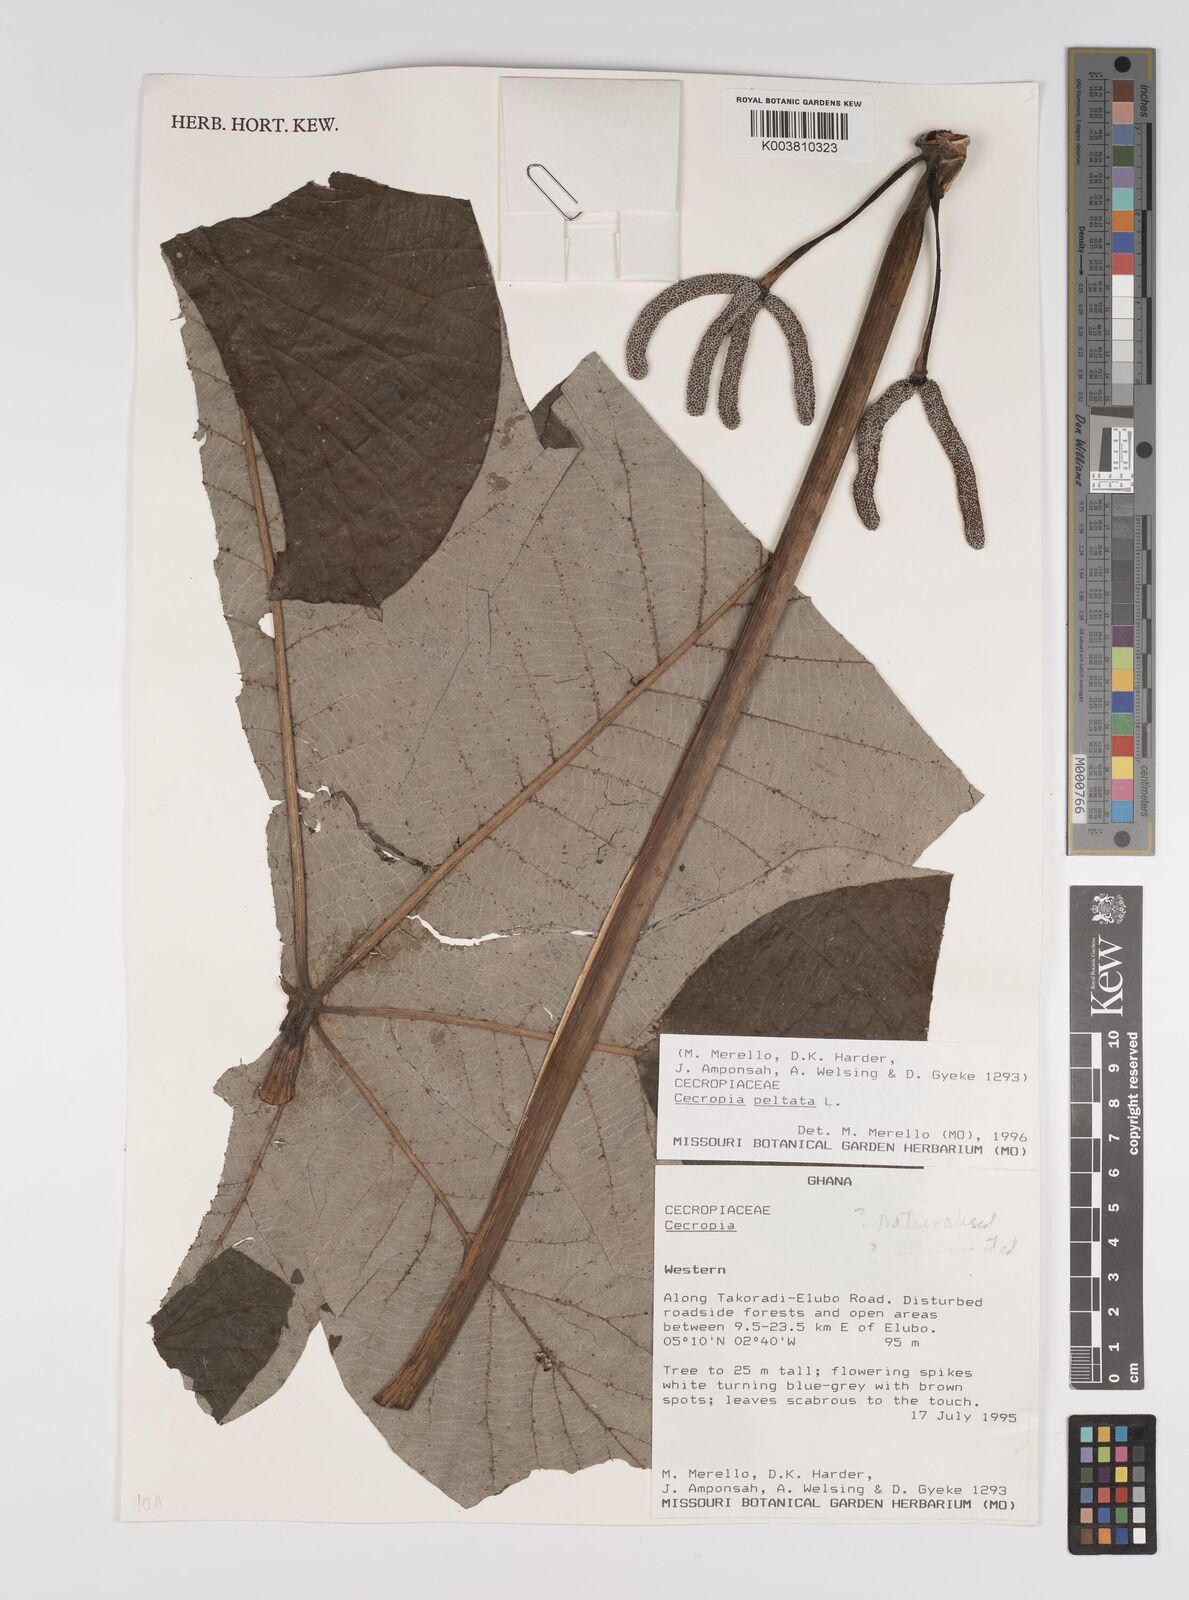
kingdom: Plantae
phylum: Tracheophyta
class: Magnoliopsida
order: Rosales
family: Urticaceae
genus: Cecropia
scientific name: Cecropia peltata
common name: Trumpet-tree
